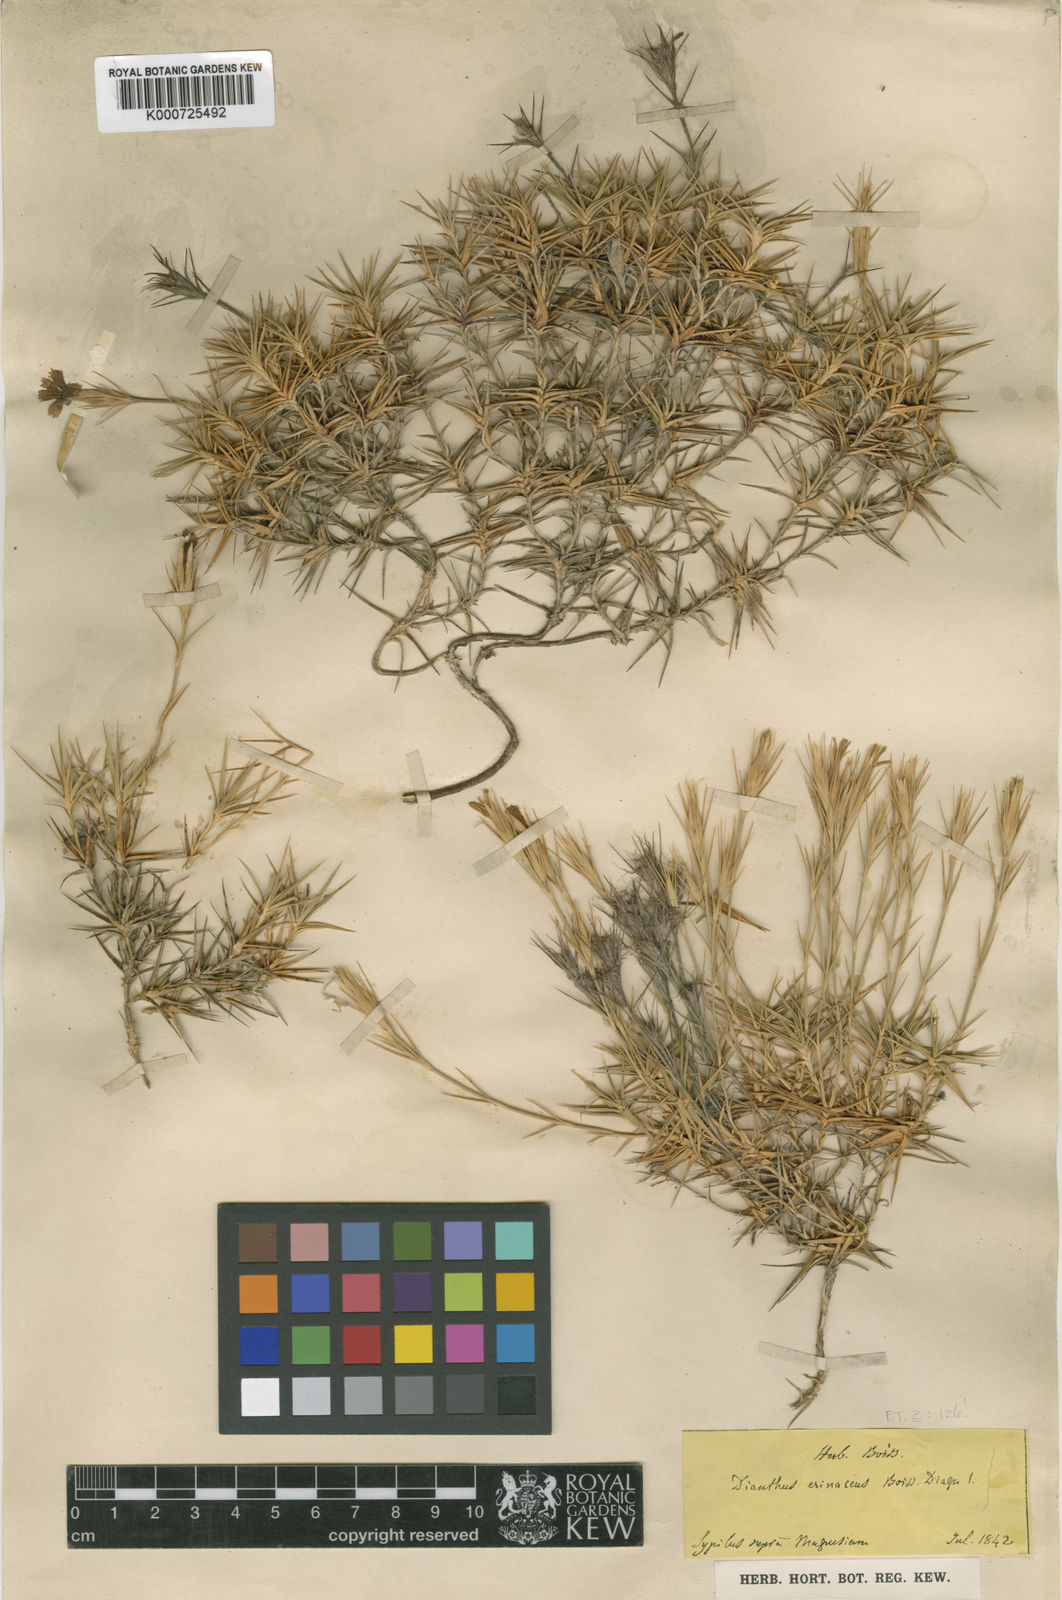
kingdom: Plantae
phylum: Tracheophyta
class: Magnoliopsida
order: Caryophyllales
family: Caryophyllaceae
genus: Dianthus
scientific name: Dianthus webbianus
